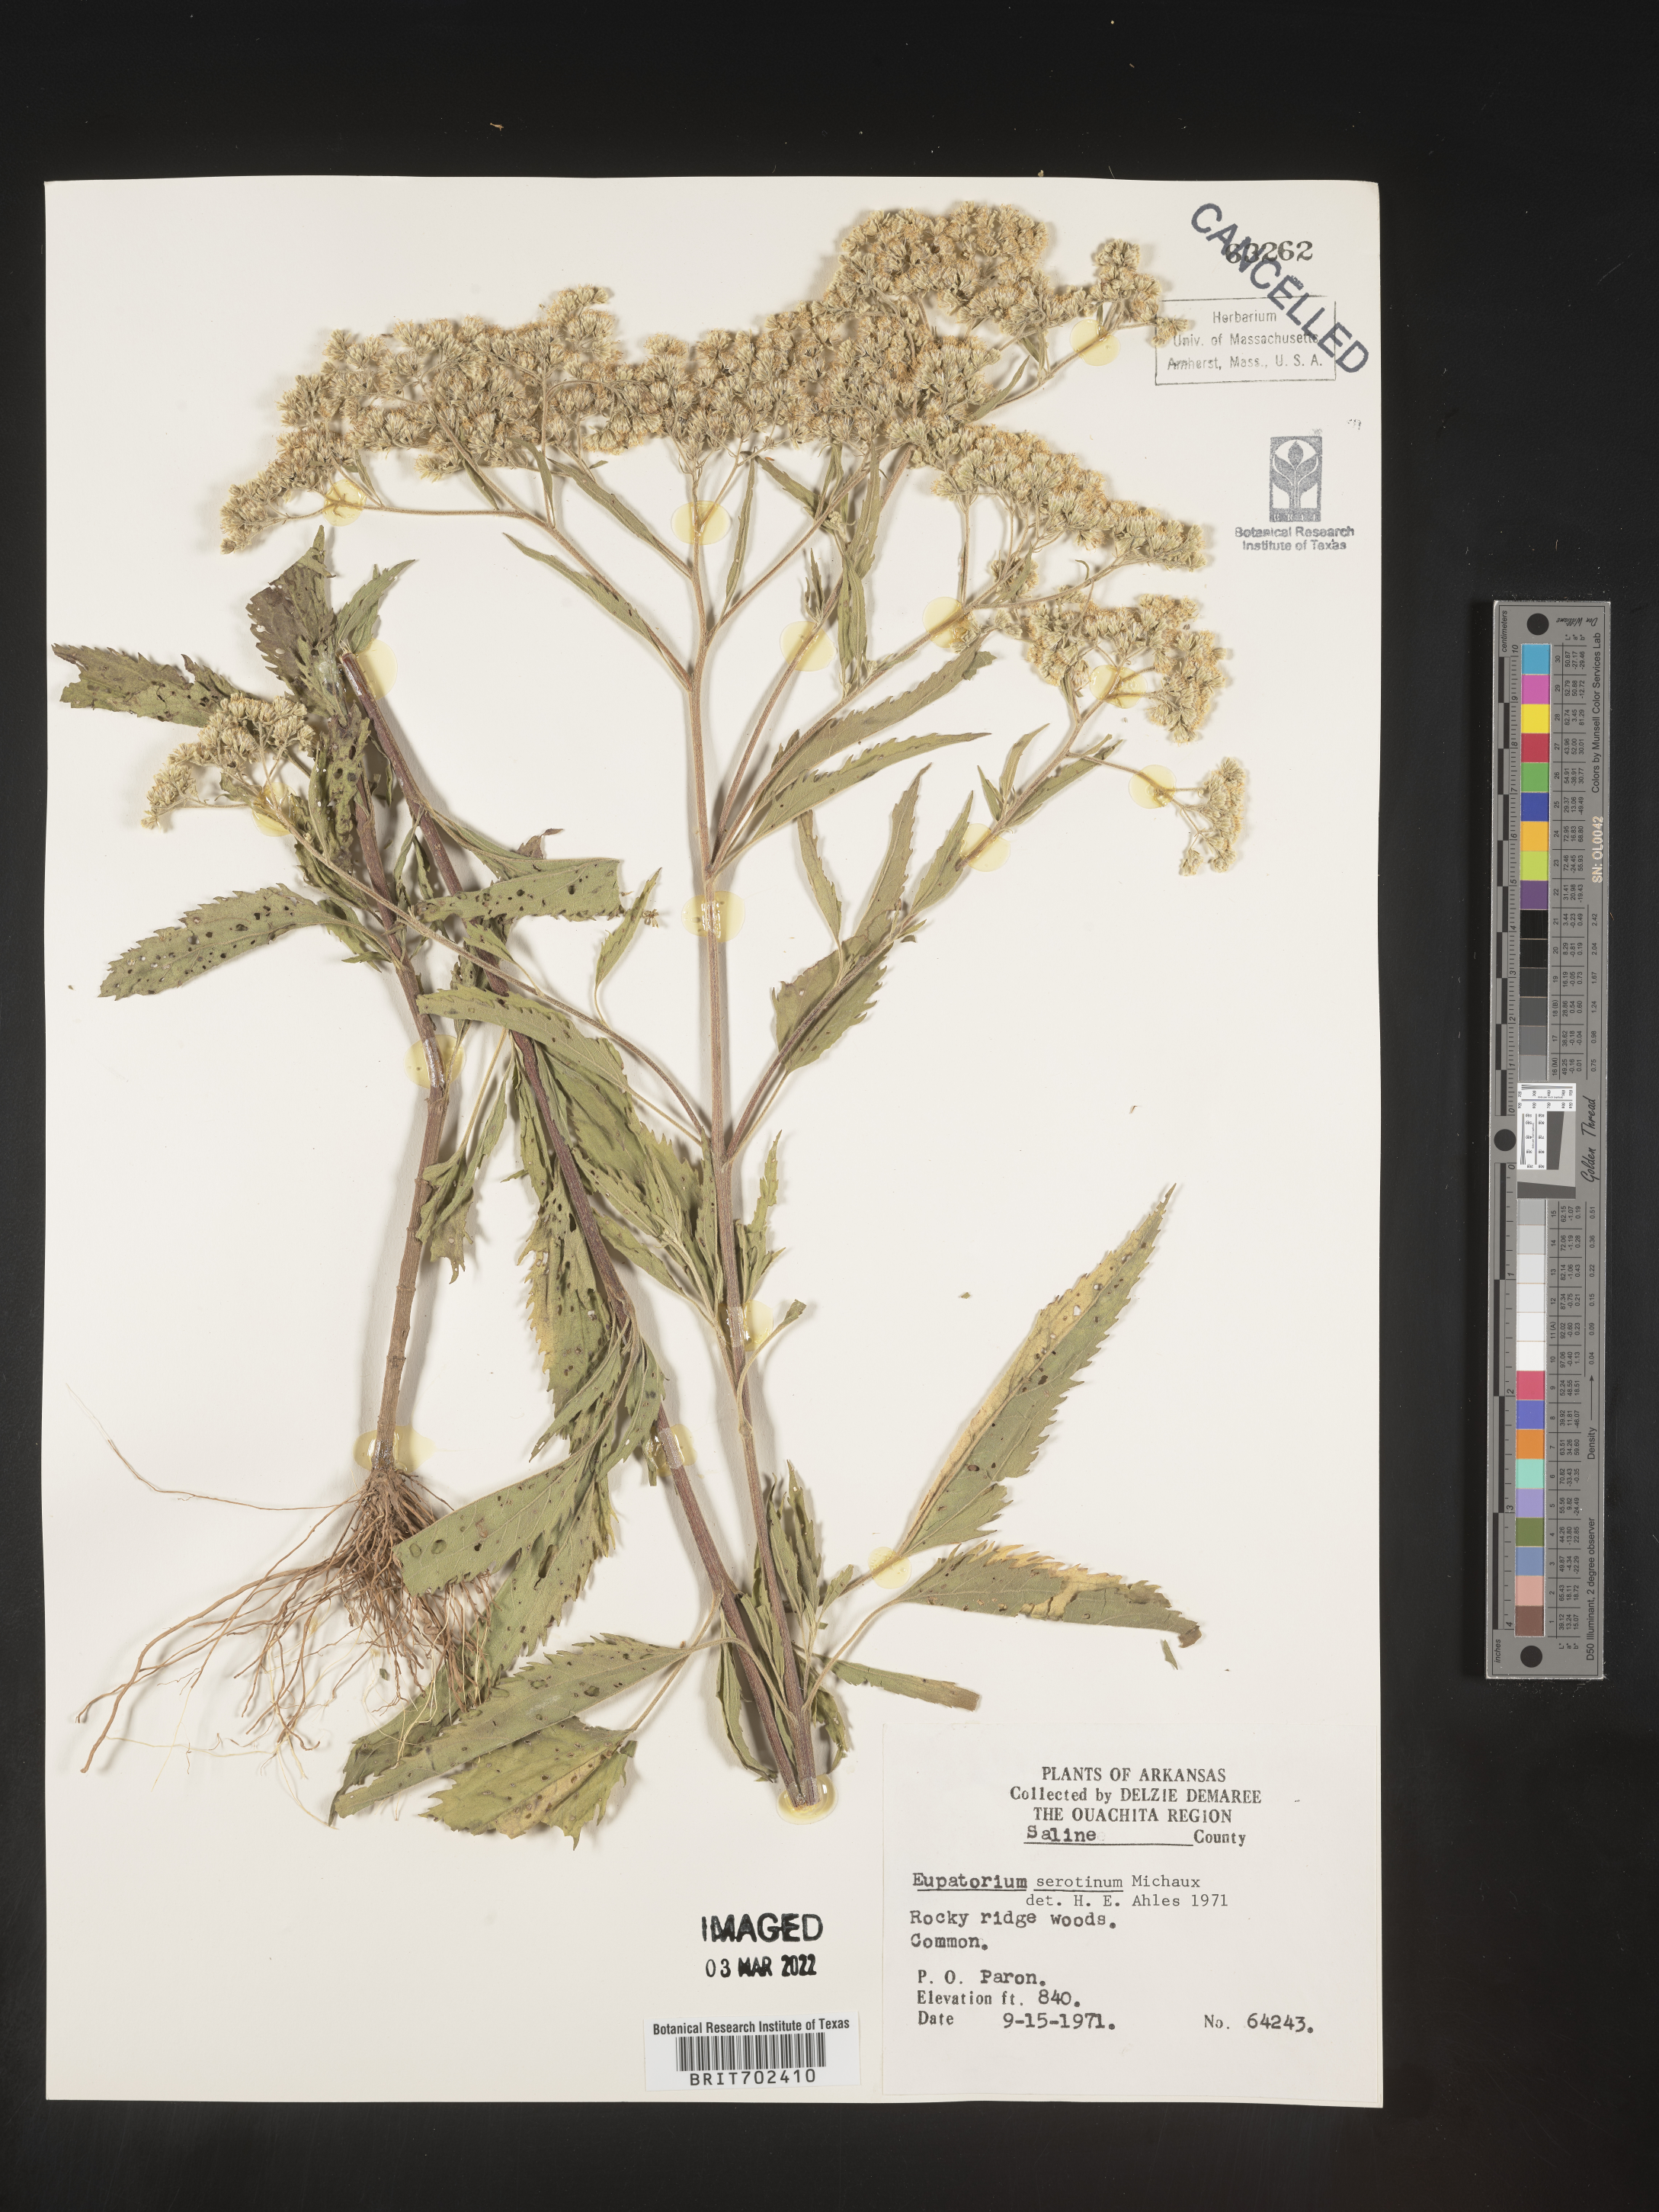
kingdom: Plantae
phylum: Tracheophyta
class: Magnoliopsida
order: Asterales
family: Asteraceae
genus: Eupatorium
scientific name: Eupatorium serotinum
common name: Late boneset
